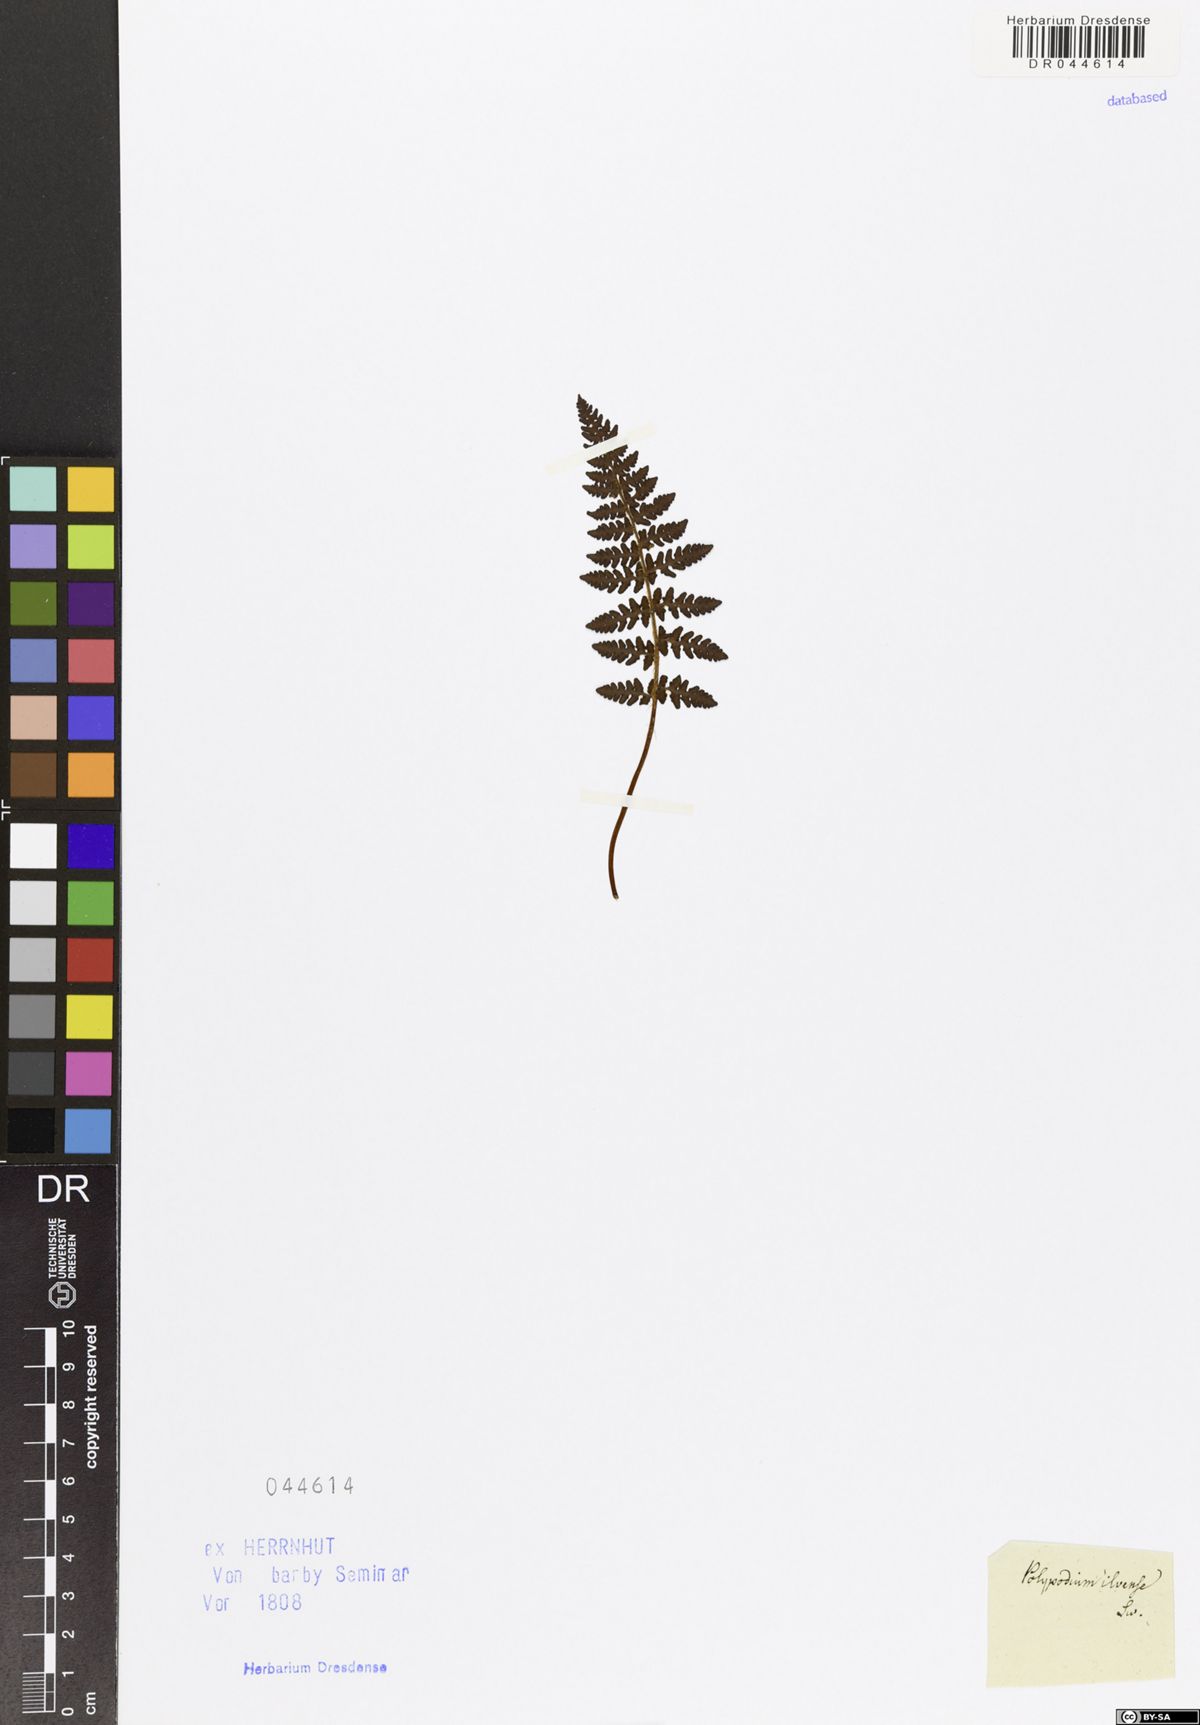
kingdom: Plantae
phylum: Tracheophyta
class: Polypodiopsida
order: Polypodiales
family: Woodsiaceae
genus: Woodsia
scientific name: Woodsia ilvensis
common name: Fragrant woodsia
